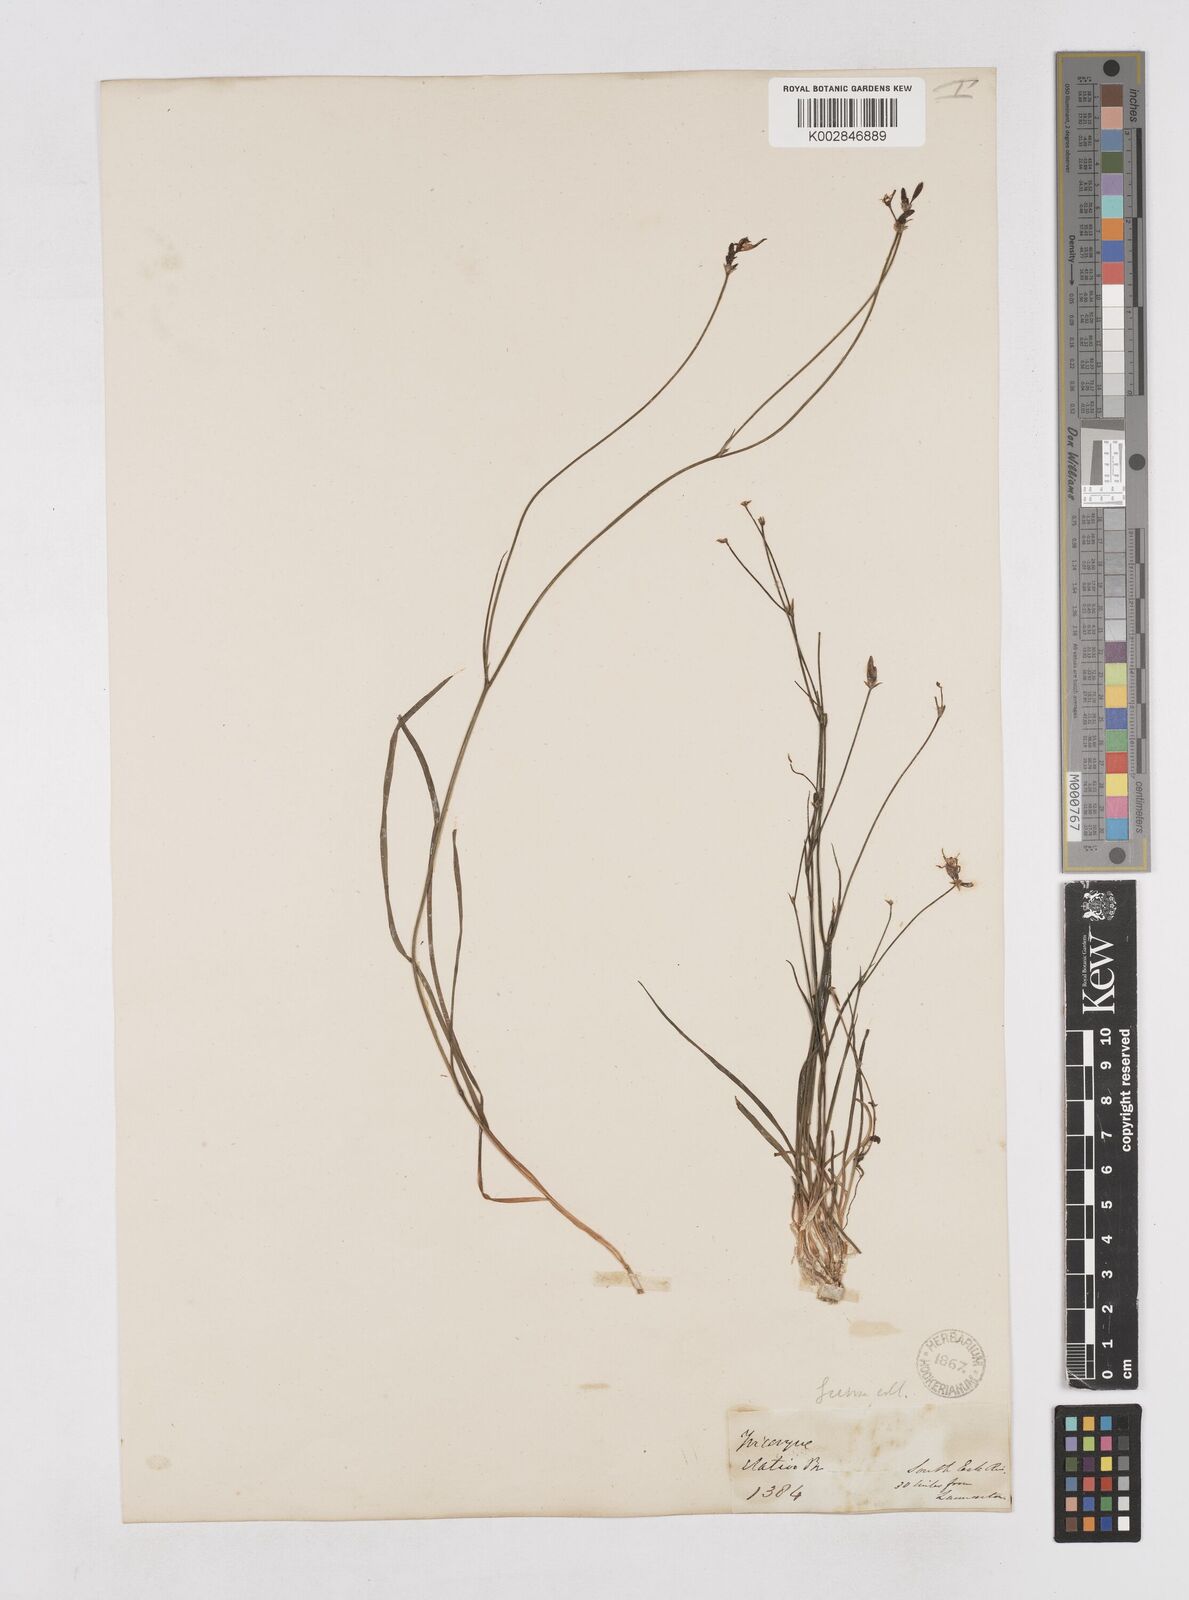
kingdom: Plantae
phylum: Tracheophyta
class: Liliopsida
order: Asparagales
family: Asphodelaceae
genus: Tricoryne
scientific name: Tricoryne elatior
